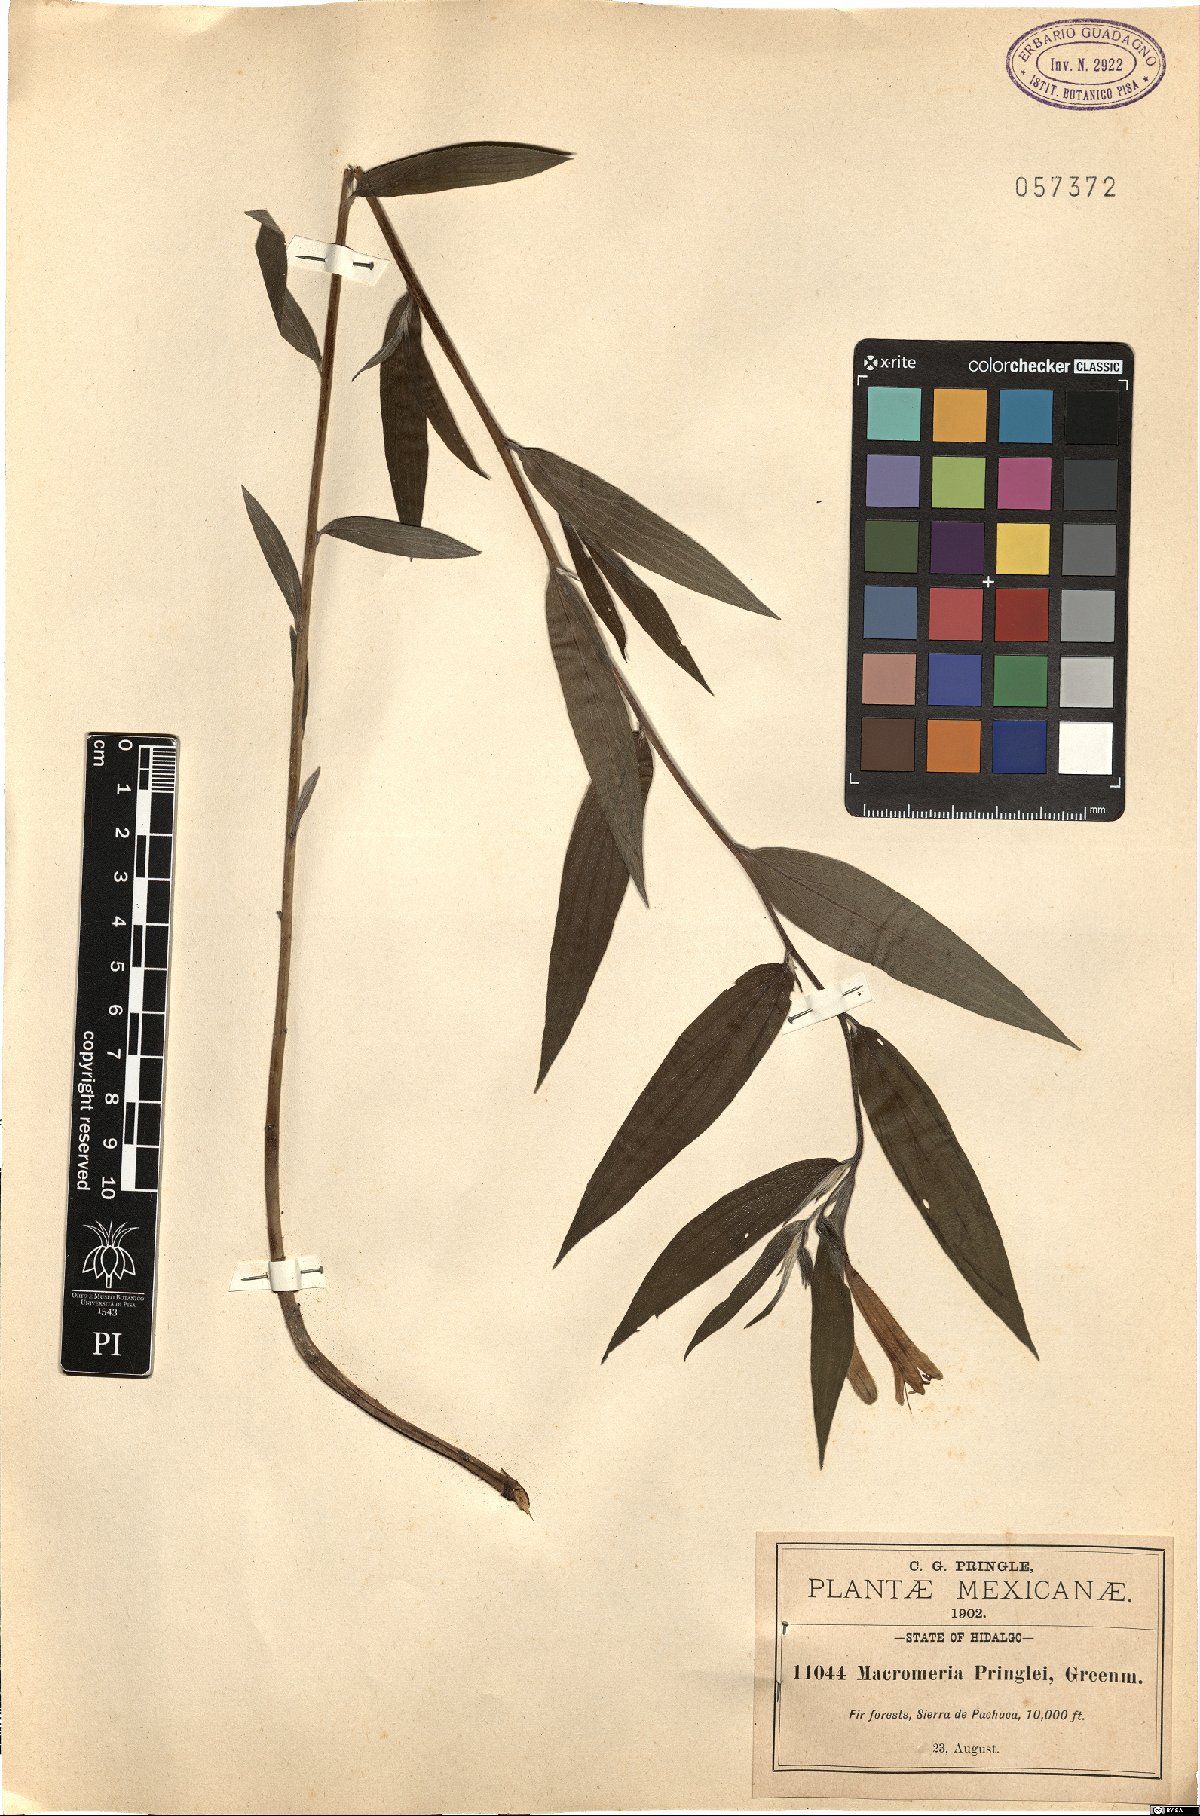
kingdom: Plantae
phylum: Tracheophyta
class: Magnoliopsida
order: Boraginales
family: Boraginaceae
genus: Lithospermum
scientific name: Lithospermum rzedowskii
